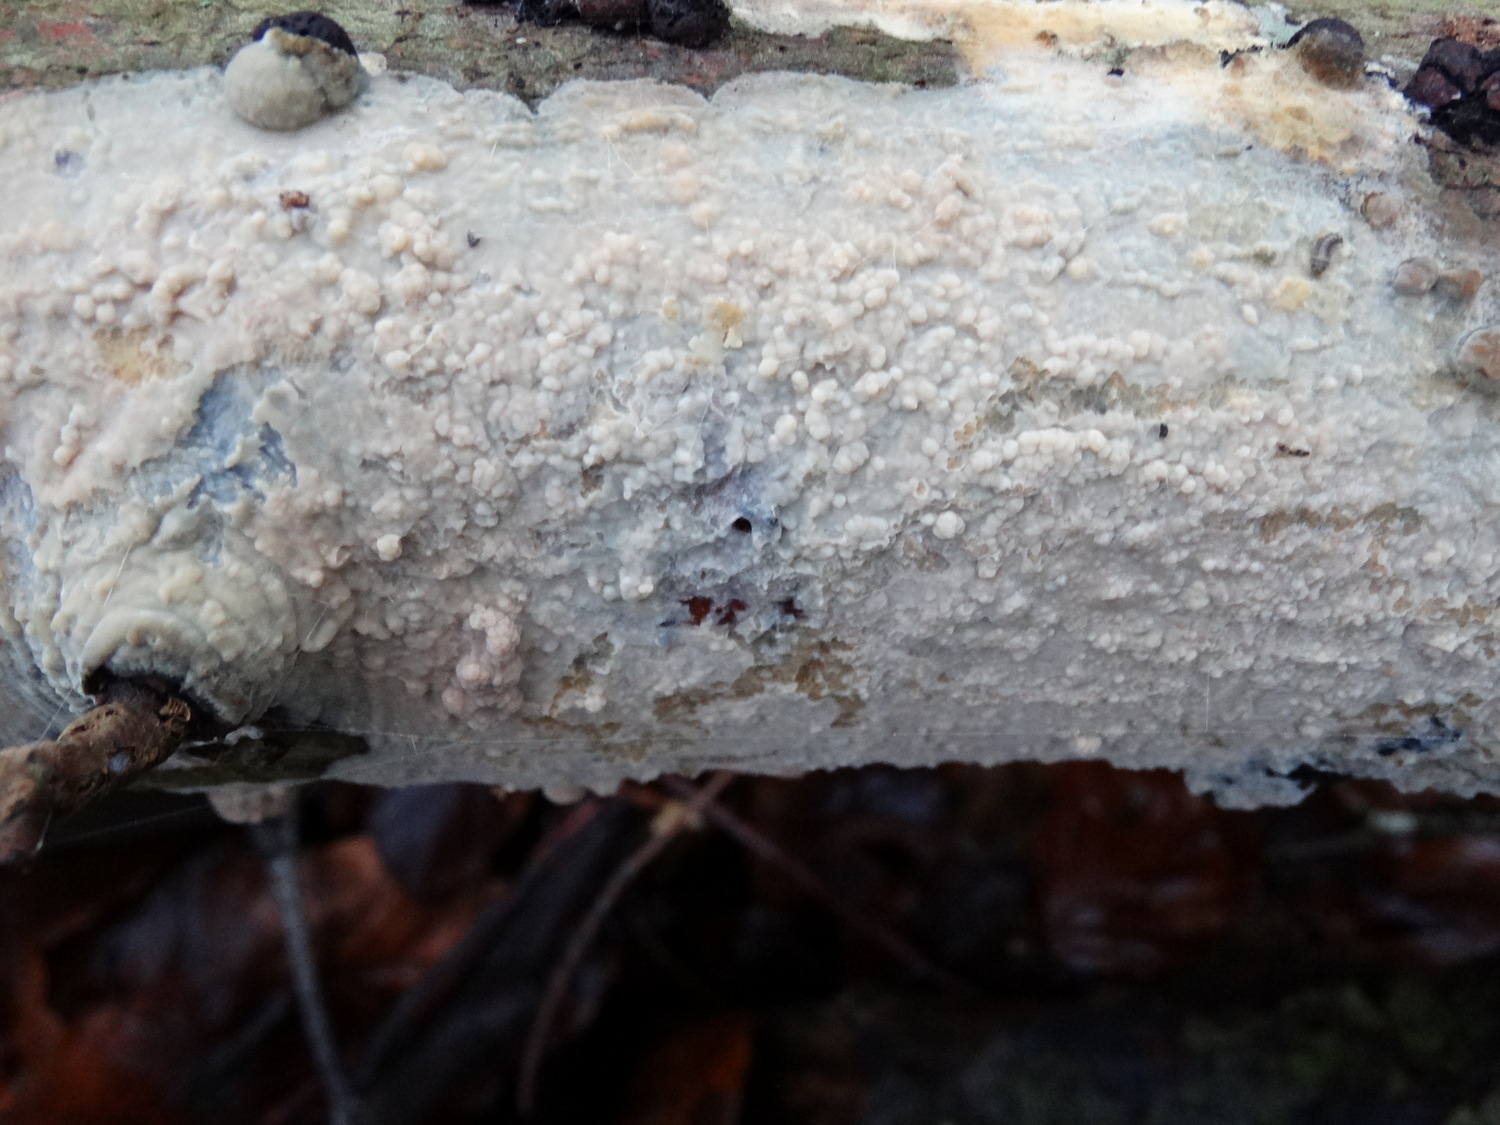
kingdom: Fungi
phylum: Basidiomycota
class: Agaricomycetes
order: Corticiales
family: Corticiaceae
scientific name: Corticiaceae
